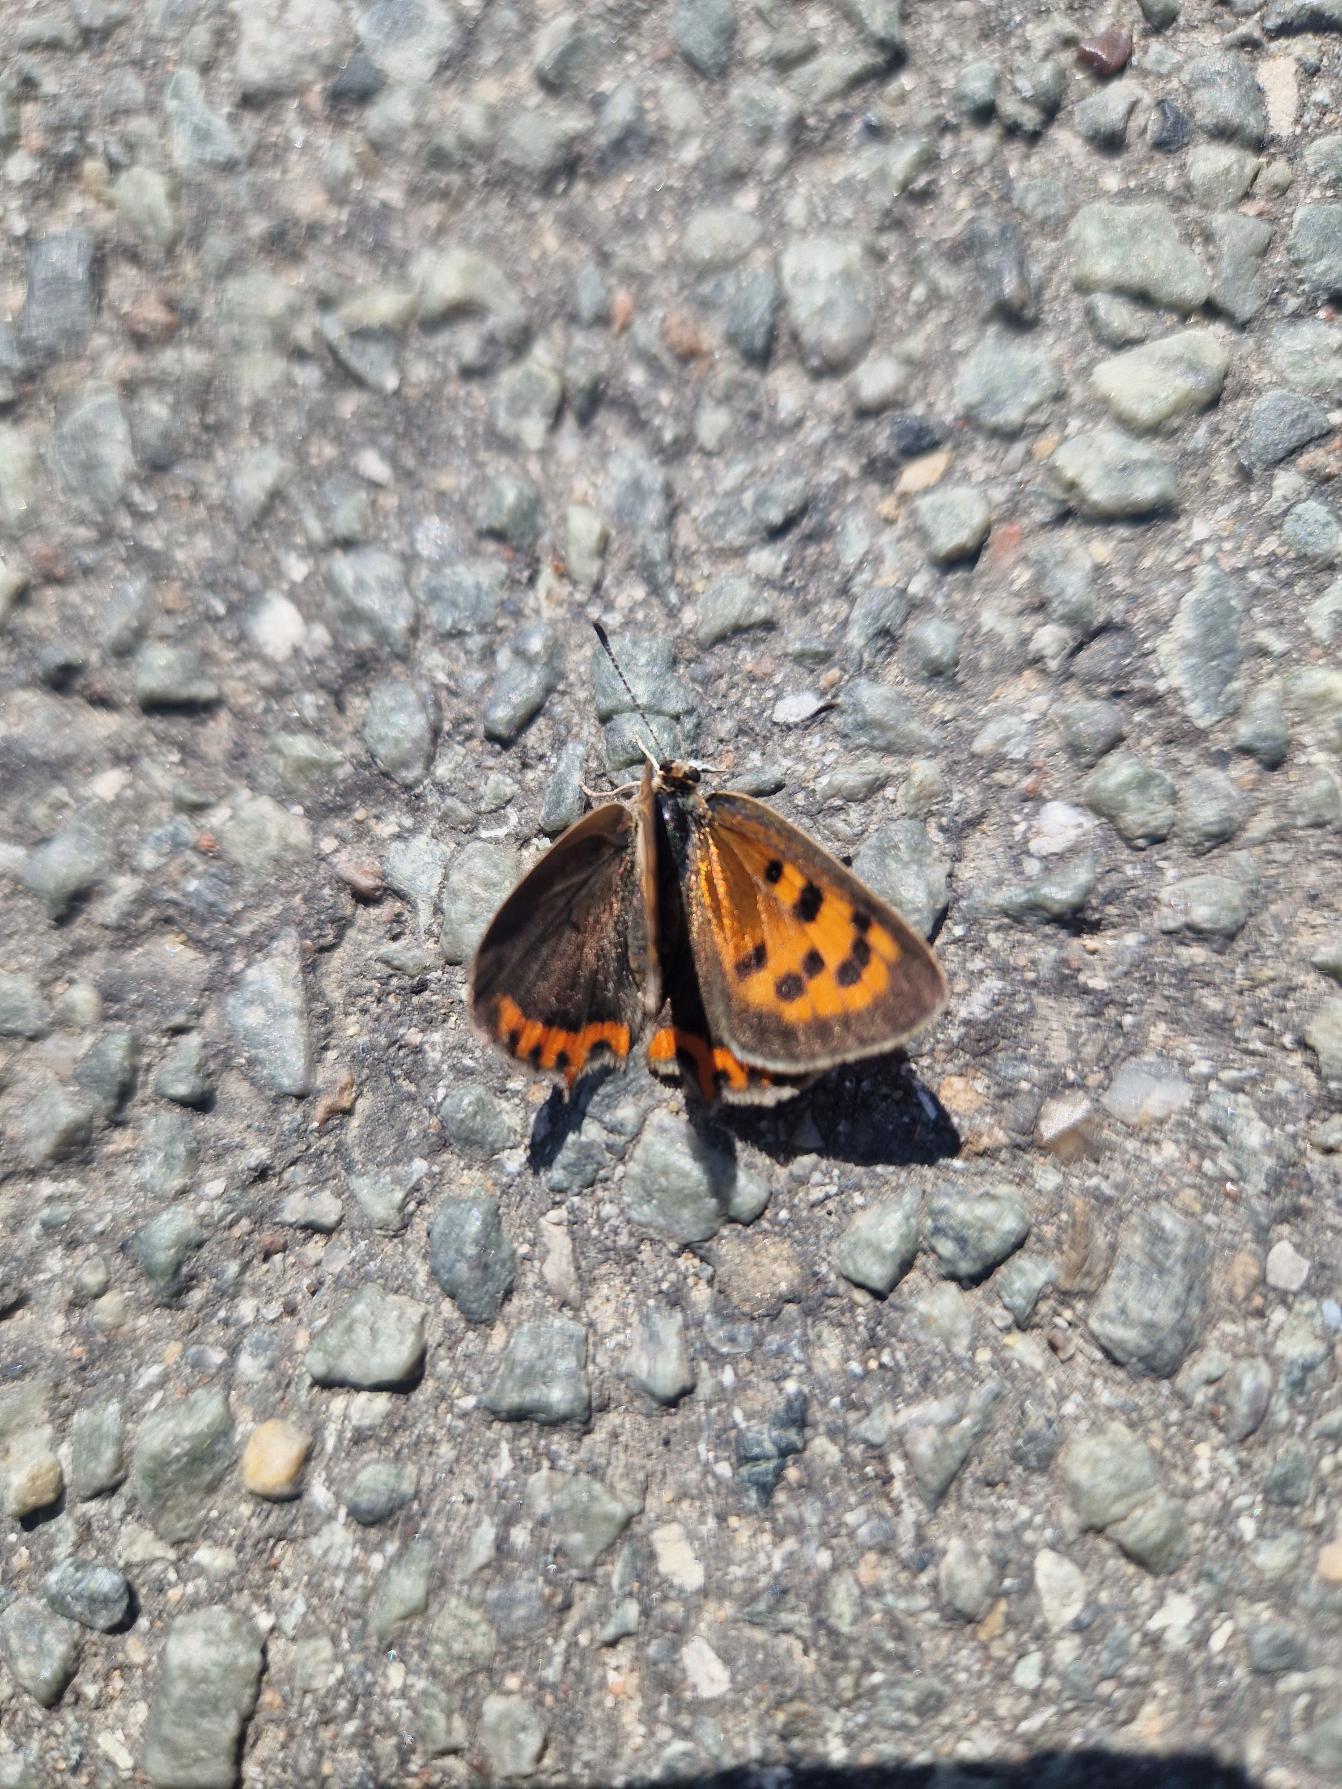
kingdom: Animalia
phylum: Arthropoda
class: Insecta
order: Lepidoptera
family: Lycaenidae
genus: Lycaena
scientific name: Lycaena phlaeas
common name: Lille ildfugl
